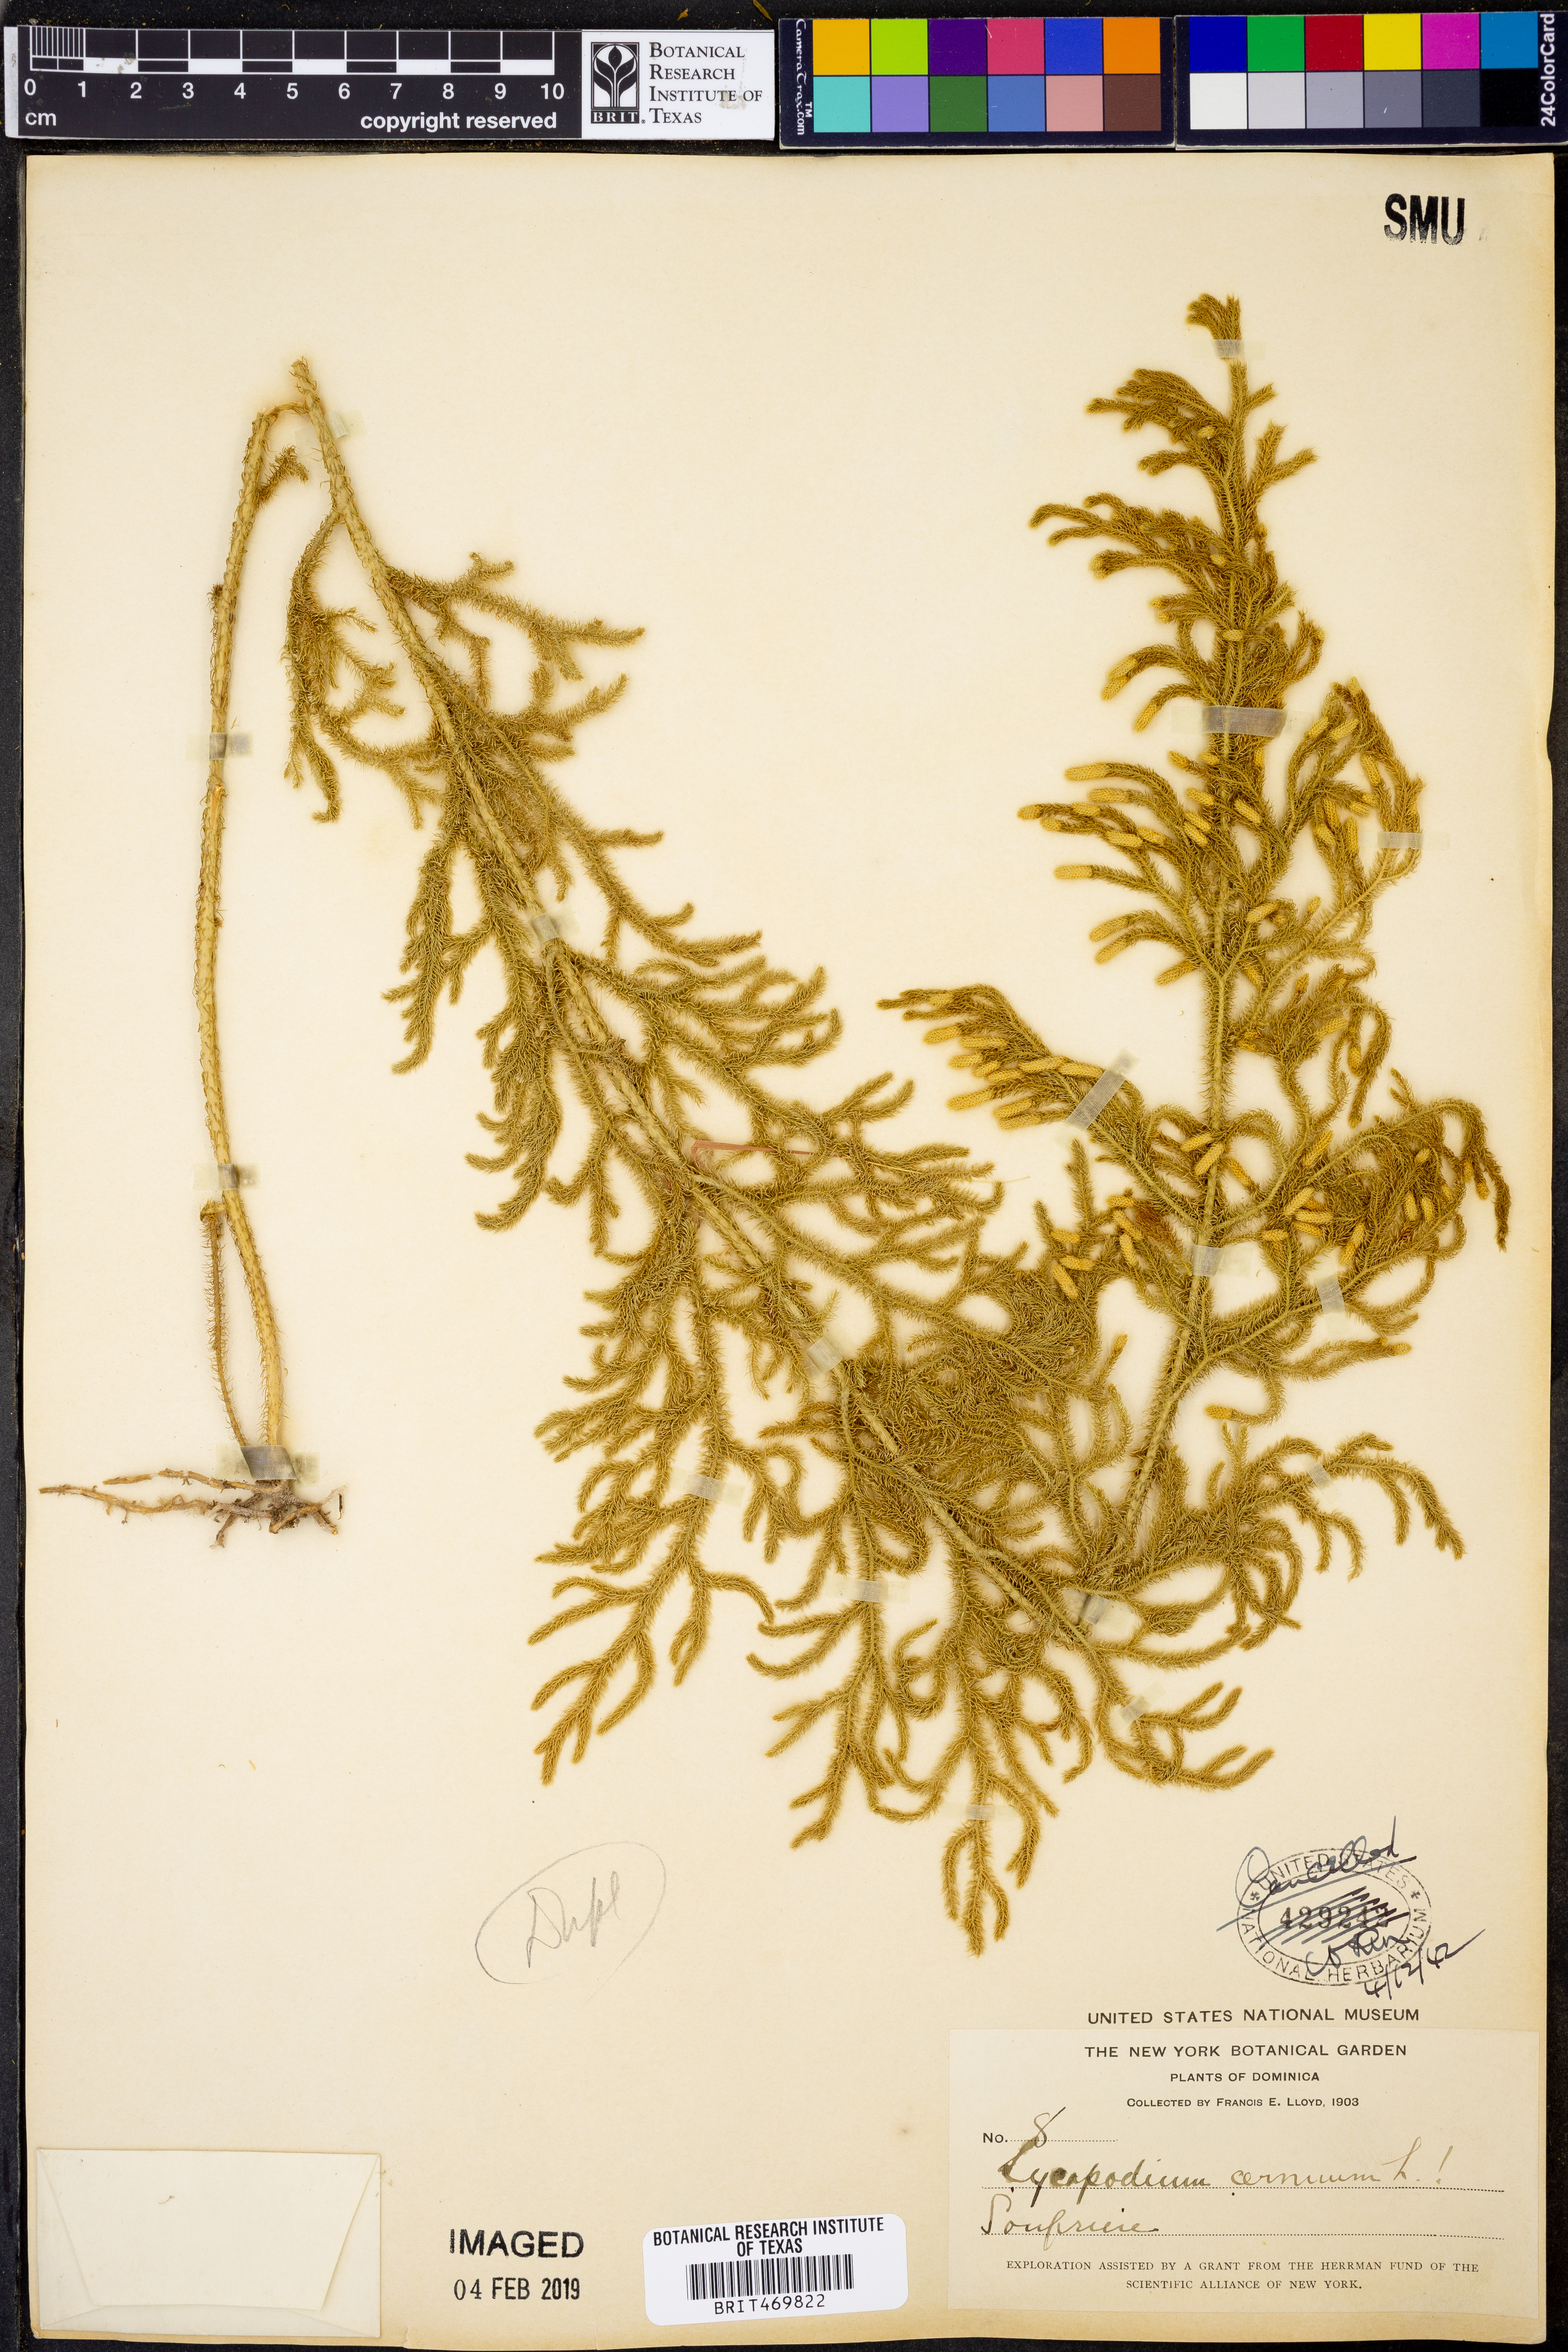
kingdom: Plantae
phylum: Tracheophyta
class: Lycopodiopsida
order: Lycopodiales
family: Lycopodiaceae
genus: Palhinhaea
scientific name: Palhinhaea cernua
